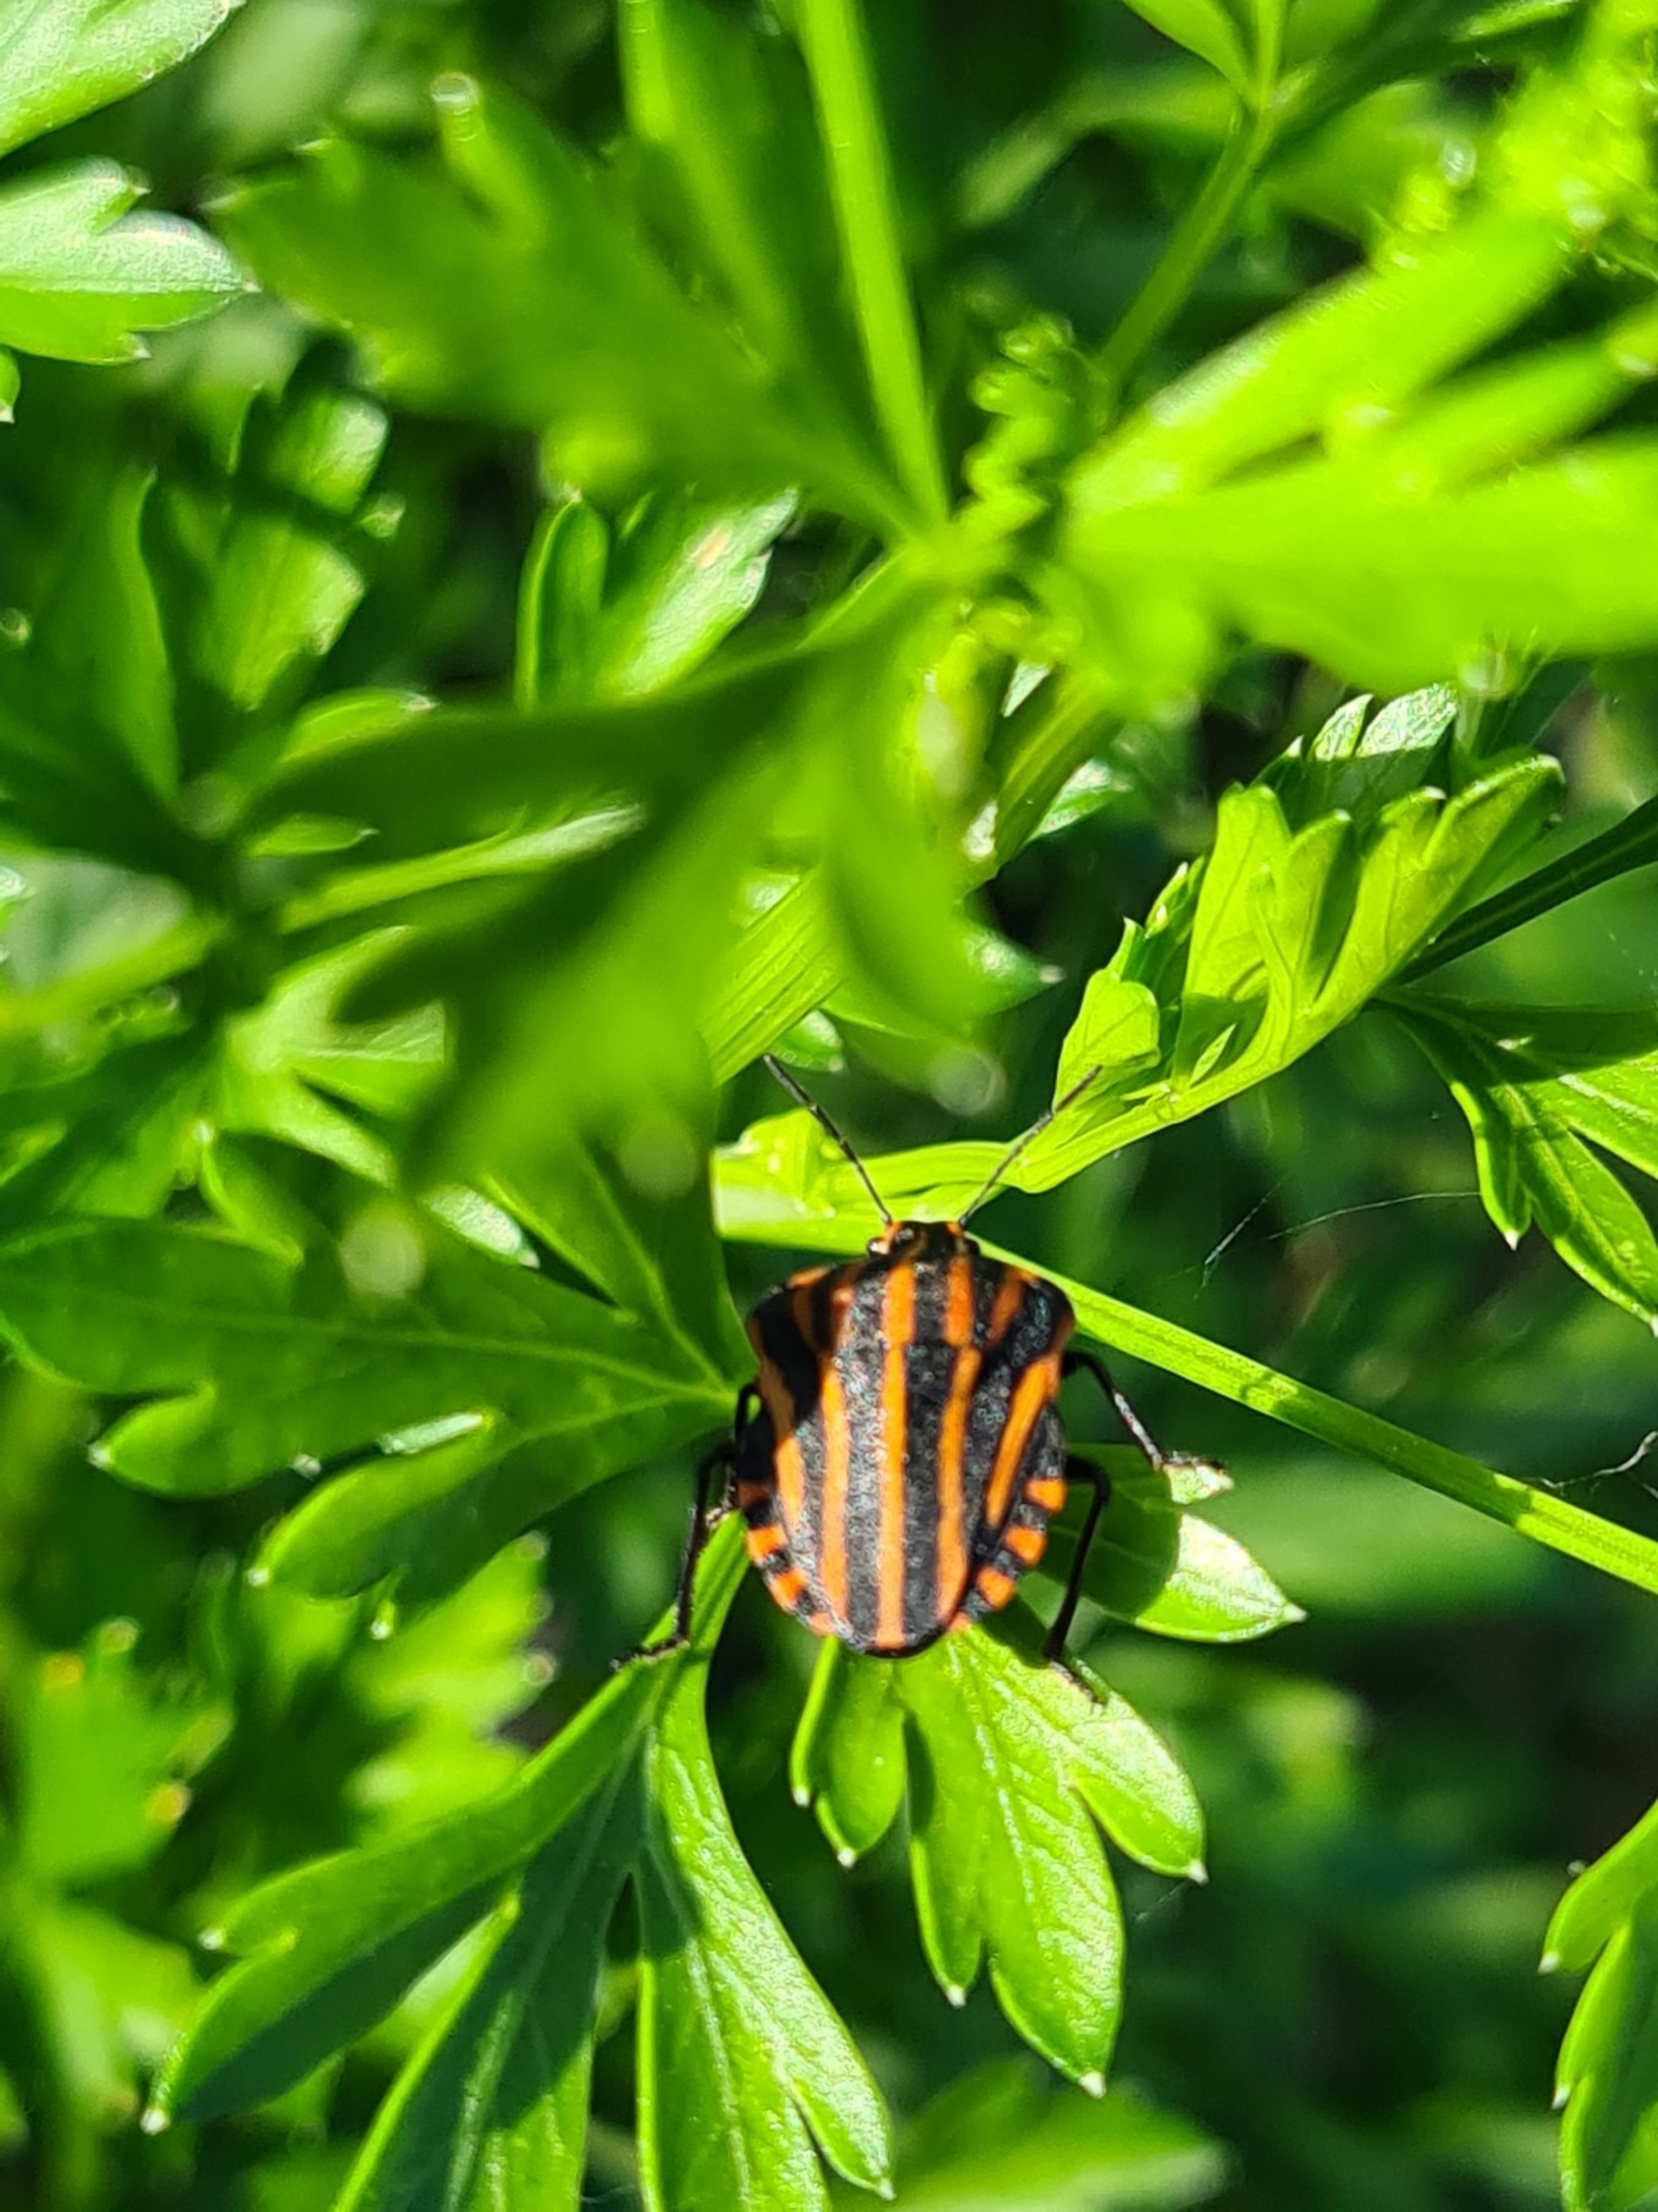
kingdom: Animalia
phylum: Arthropoda
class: Insecta
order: Hemiptera
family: Pentatomidae
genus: Graphosoma
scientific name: Graphosoma italicum
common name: Stribetæge
